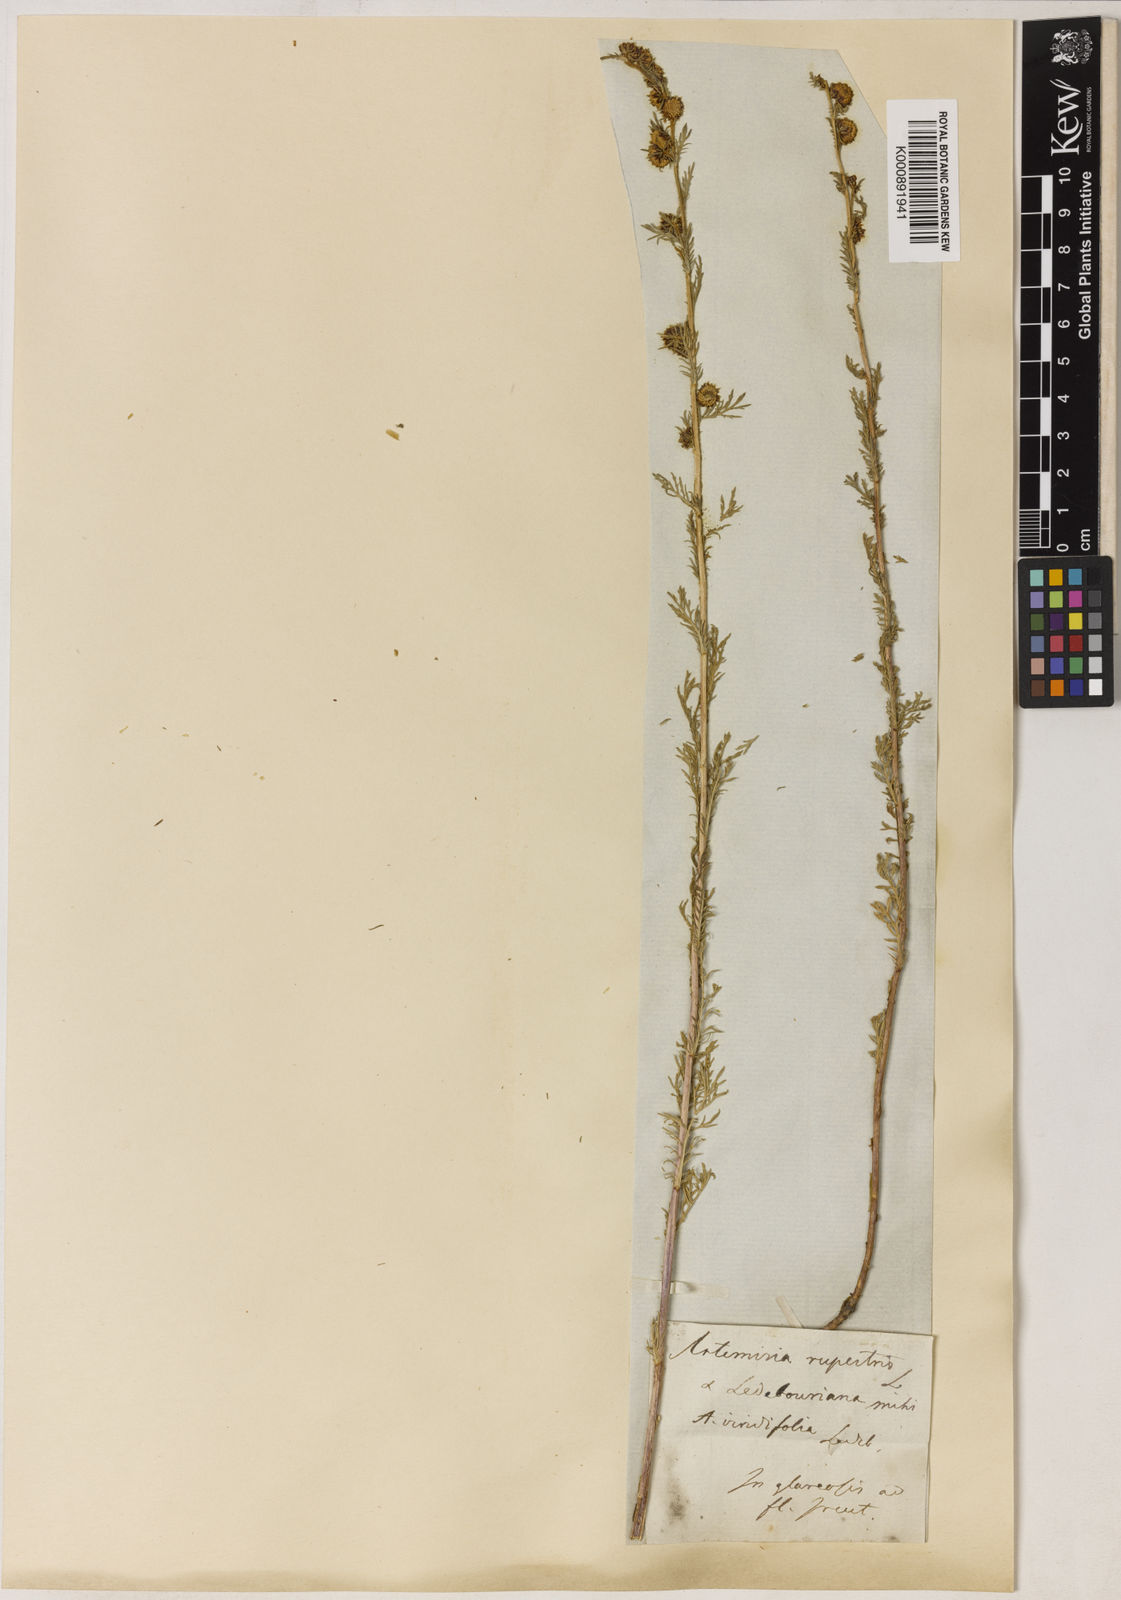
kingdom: Plantae
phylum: Tracheophyta
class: Magnoliopsida
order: Asterales
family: Asteraceae
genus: Artemisia
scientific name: Artemisia rupestris
